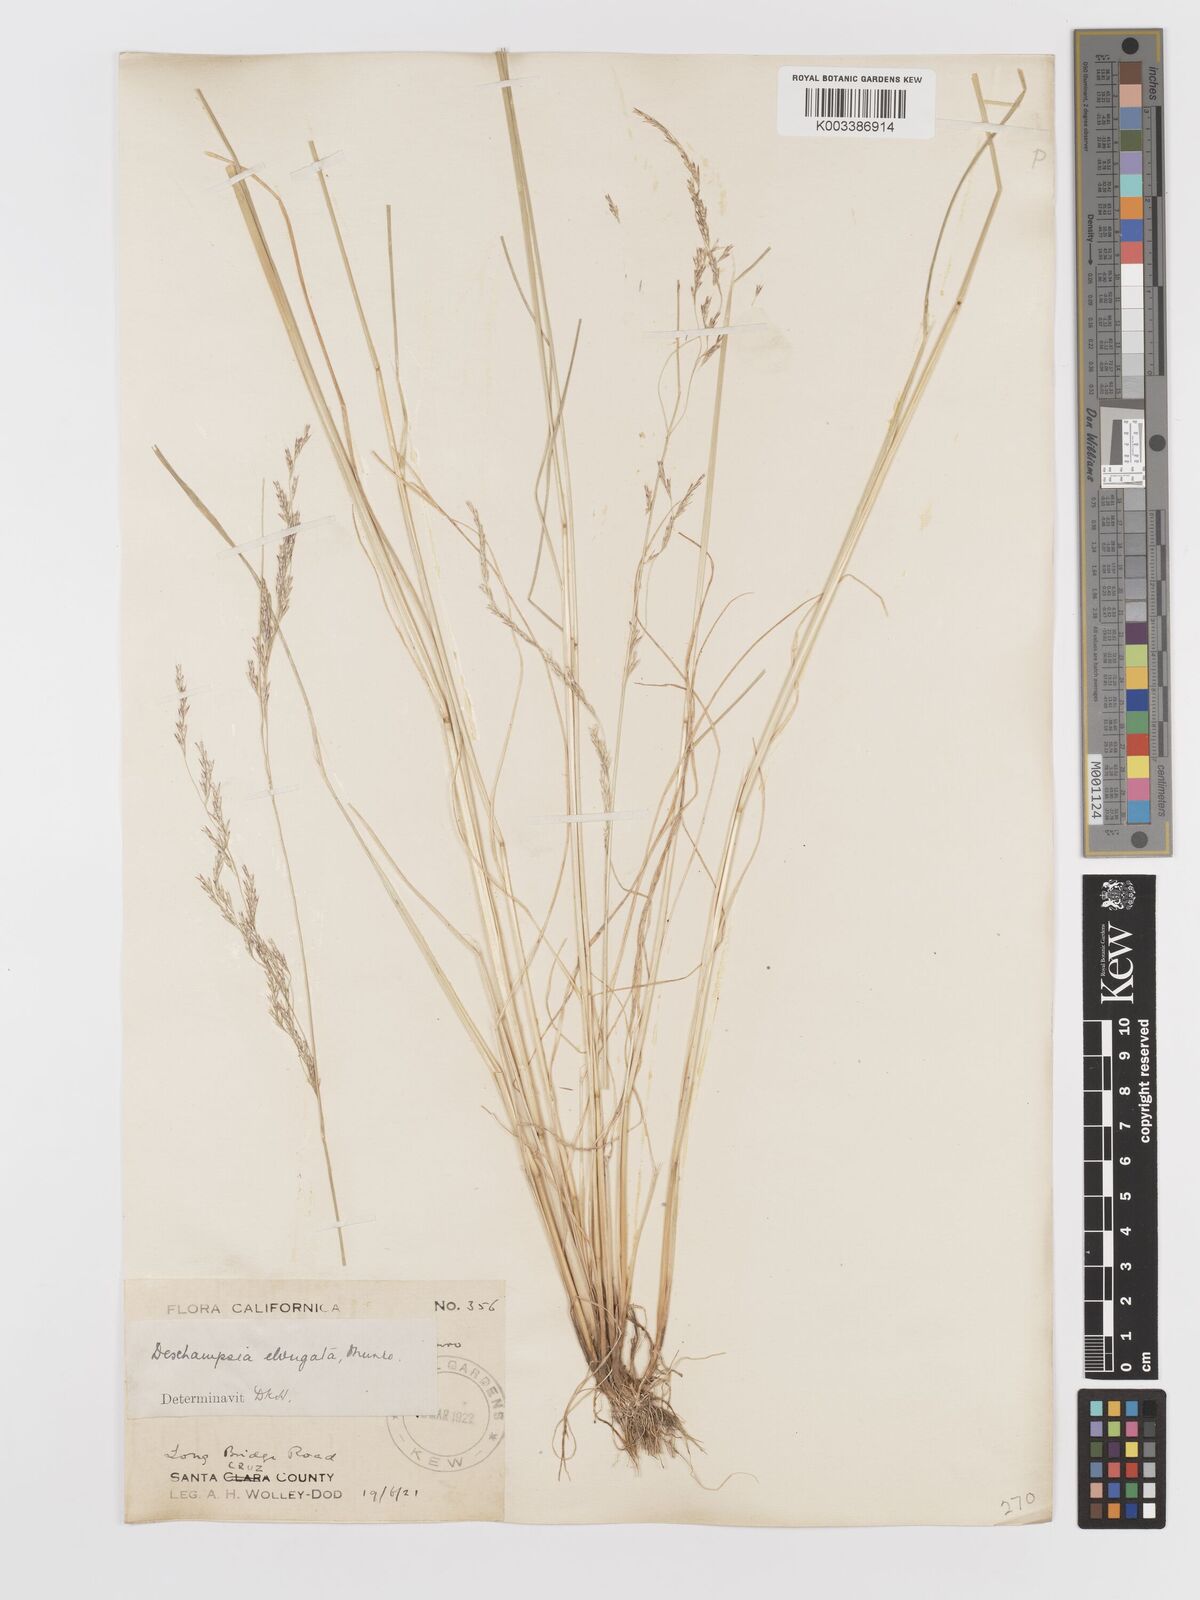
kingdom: Plantae
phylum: Tracheophyta
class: Liliopsida
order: Poales
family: Poaceae
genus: Deschampsia
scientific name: Deschampsia elongata
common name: Slender hairgrass
